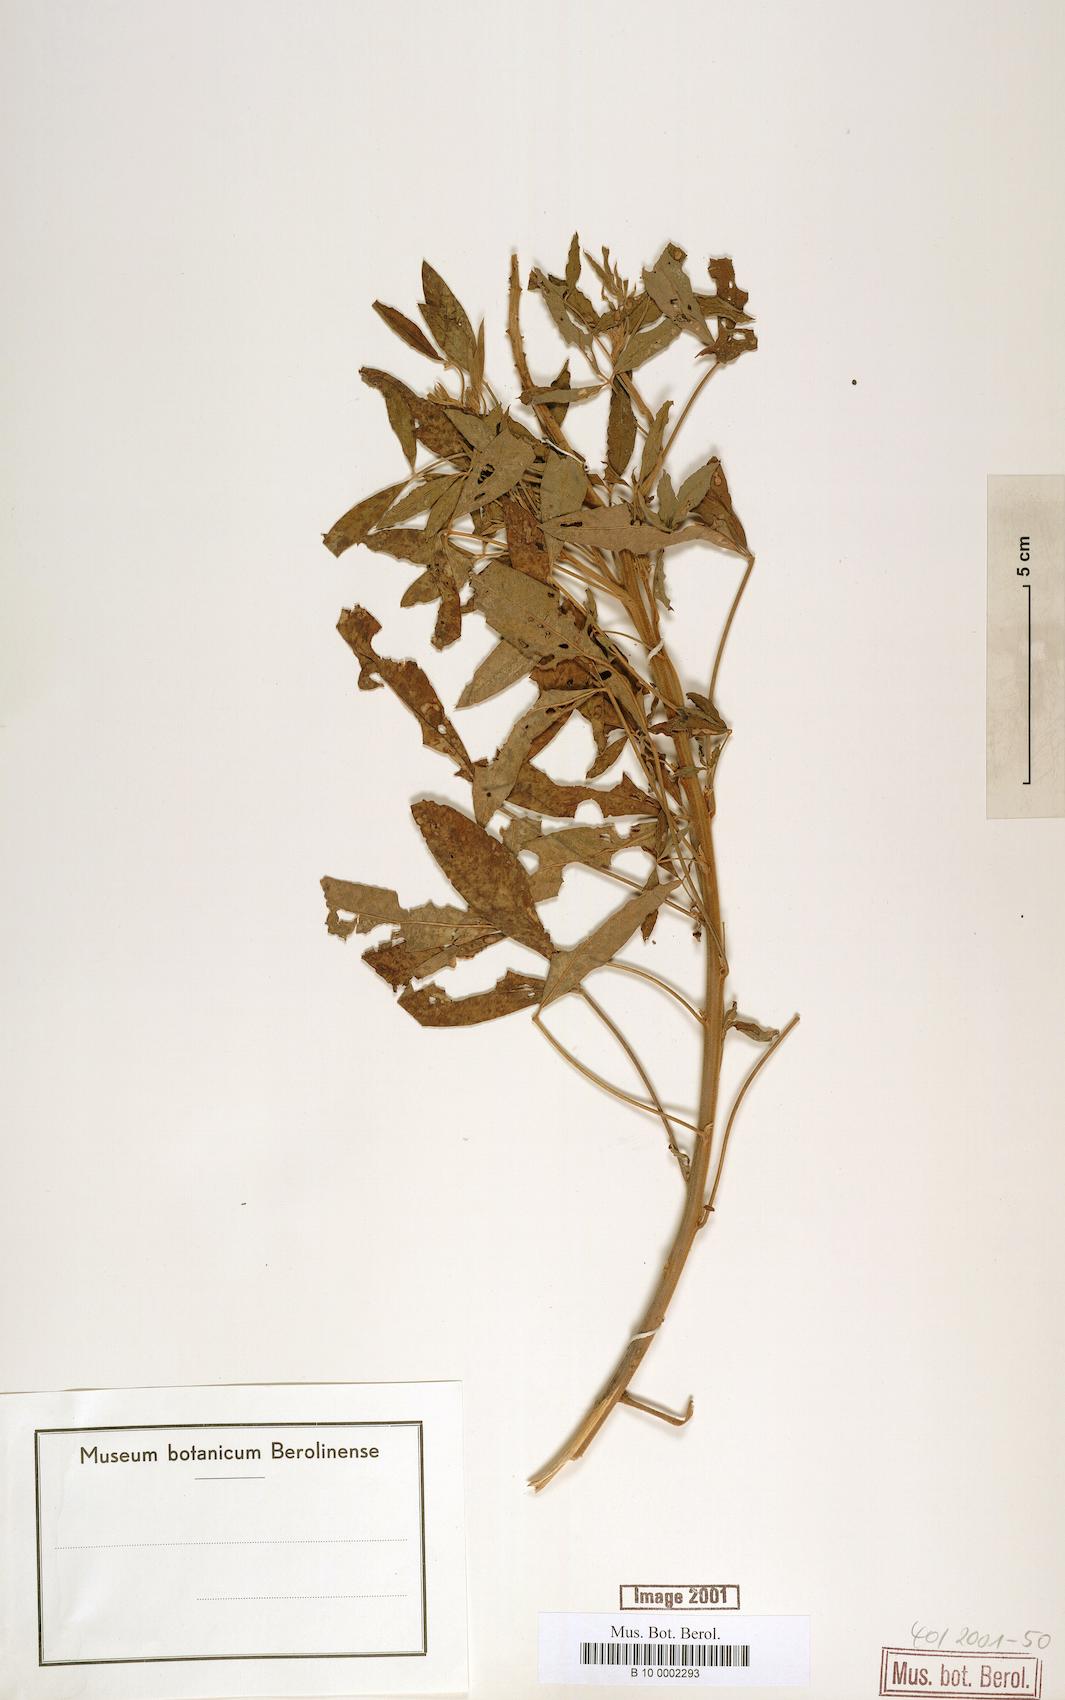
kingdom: Plantae
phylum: Tracheophyta
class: Magnoliopsida
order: Fabales
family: Fabaceae
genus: Crotalaria
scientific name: Crotalaria micans
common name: Caracas rattlebox
